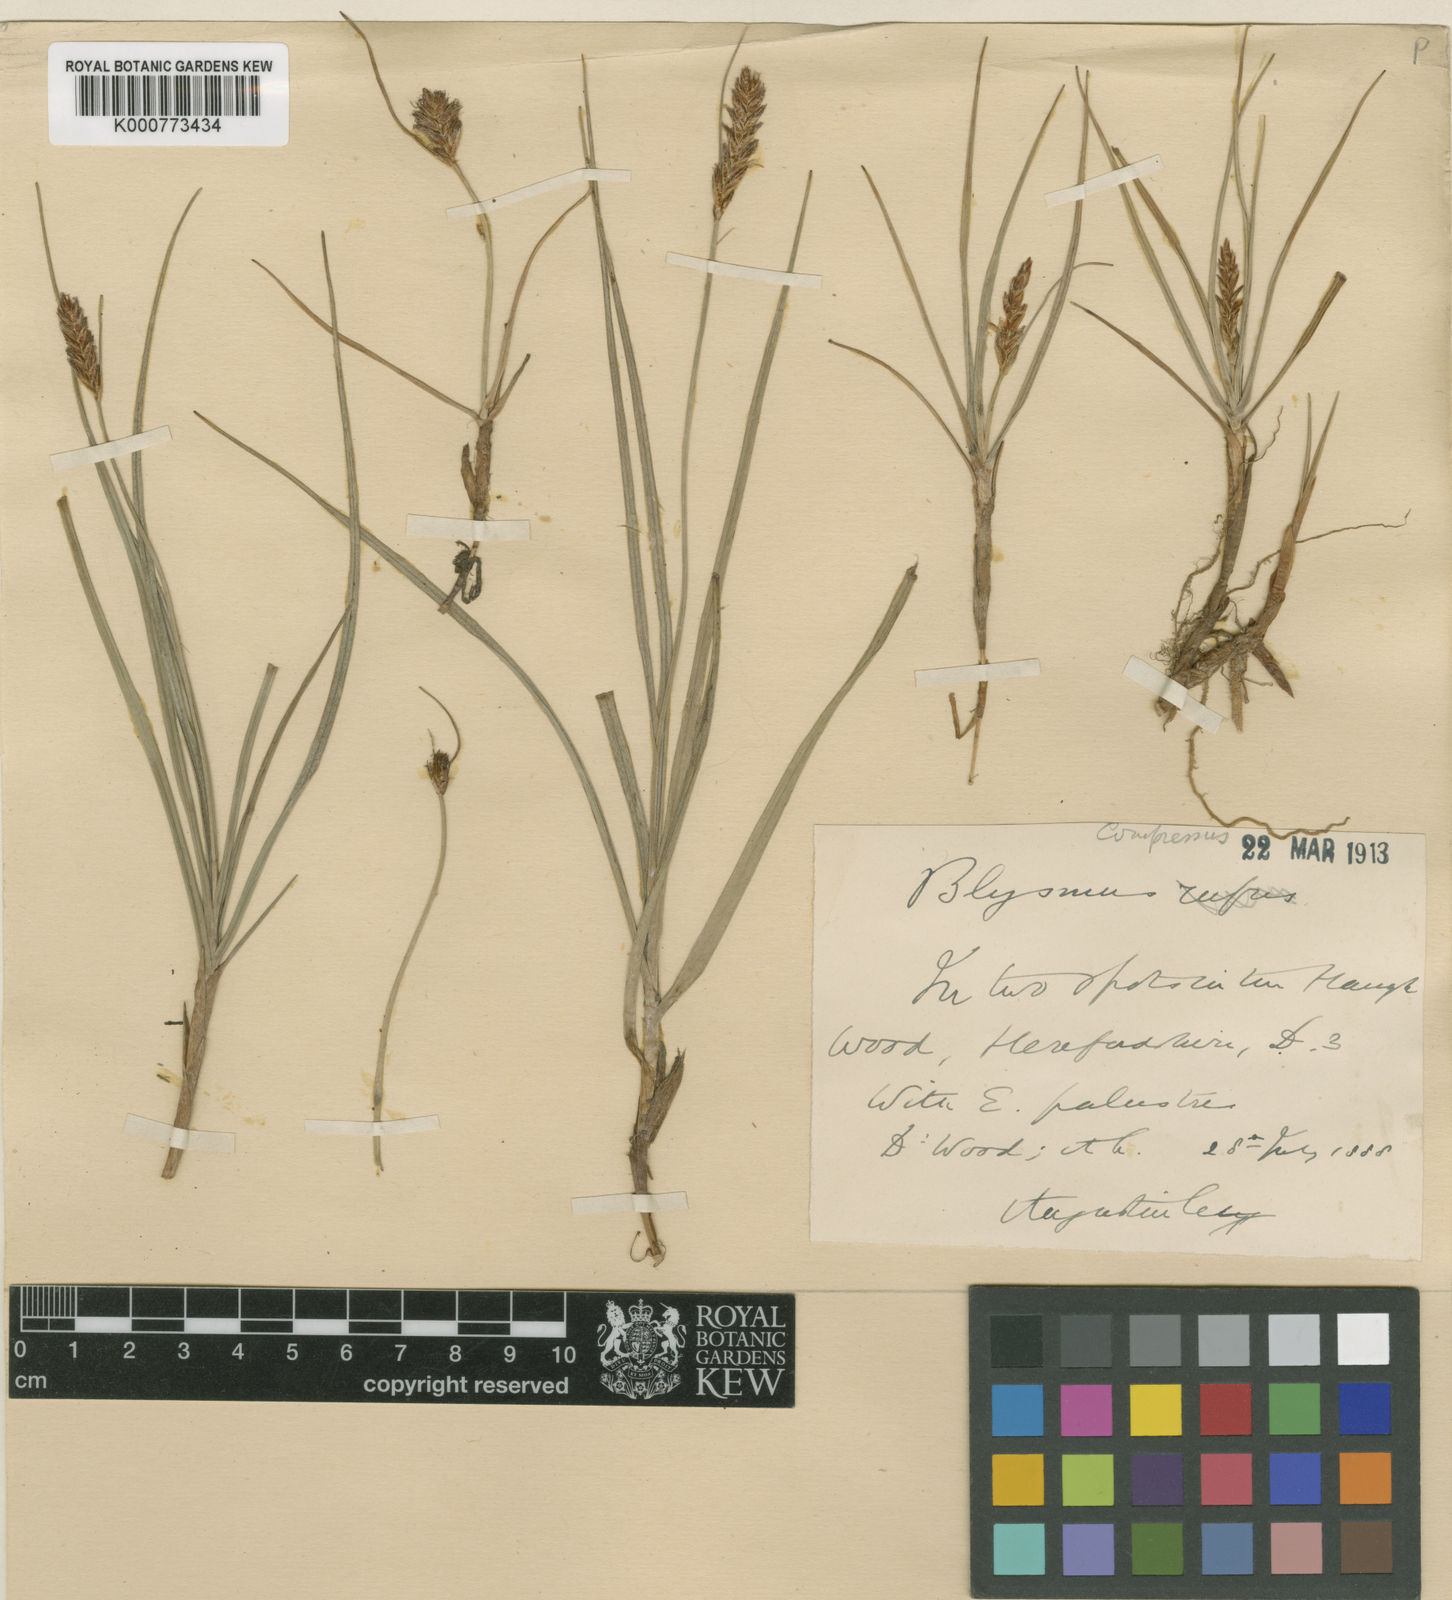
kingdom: Plantae
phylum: Tracheophyta
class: Liliopsida
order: Poales
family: Cyperaceae
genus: Blysmus
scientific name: Blysmus compressus
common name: Flat-sedge
